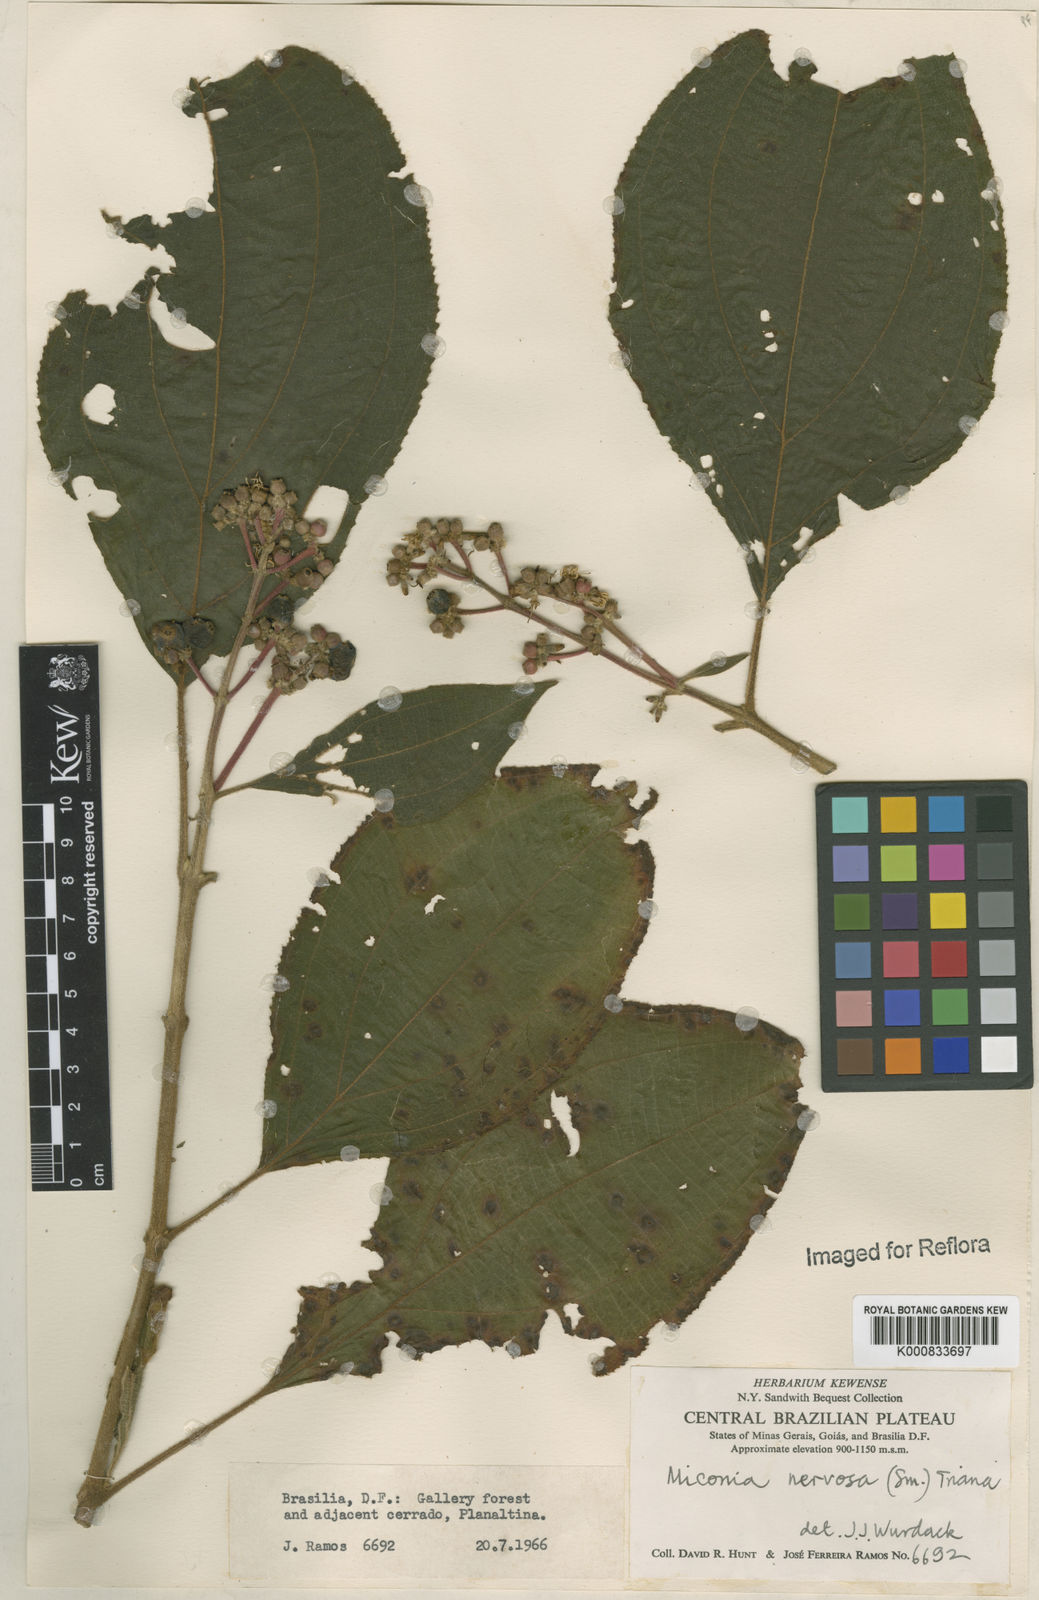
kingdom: Plantae
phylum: Tracheophyta
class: Magnoliopsida
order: Myrtales
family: Melastomataceae
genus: Miconia
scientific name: Miconia nervosa
